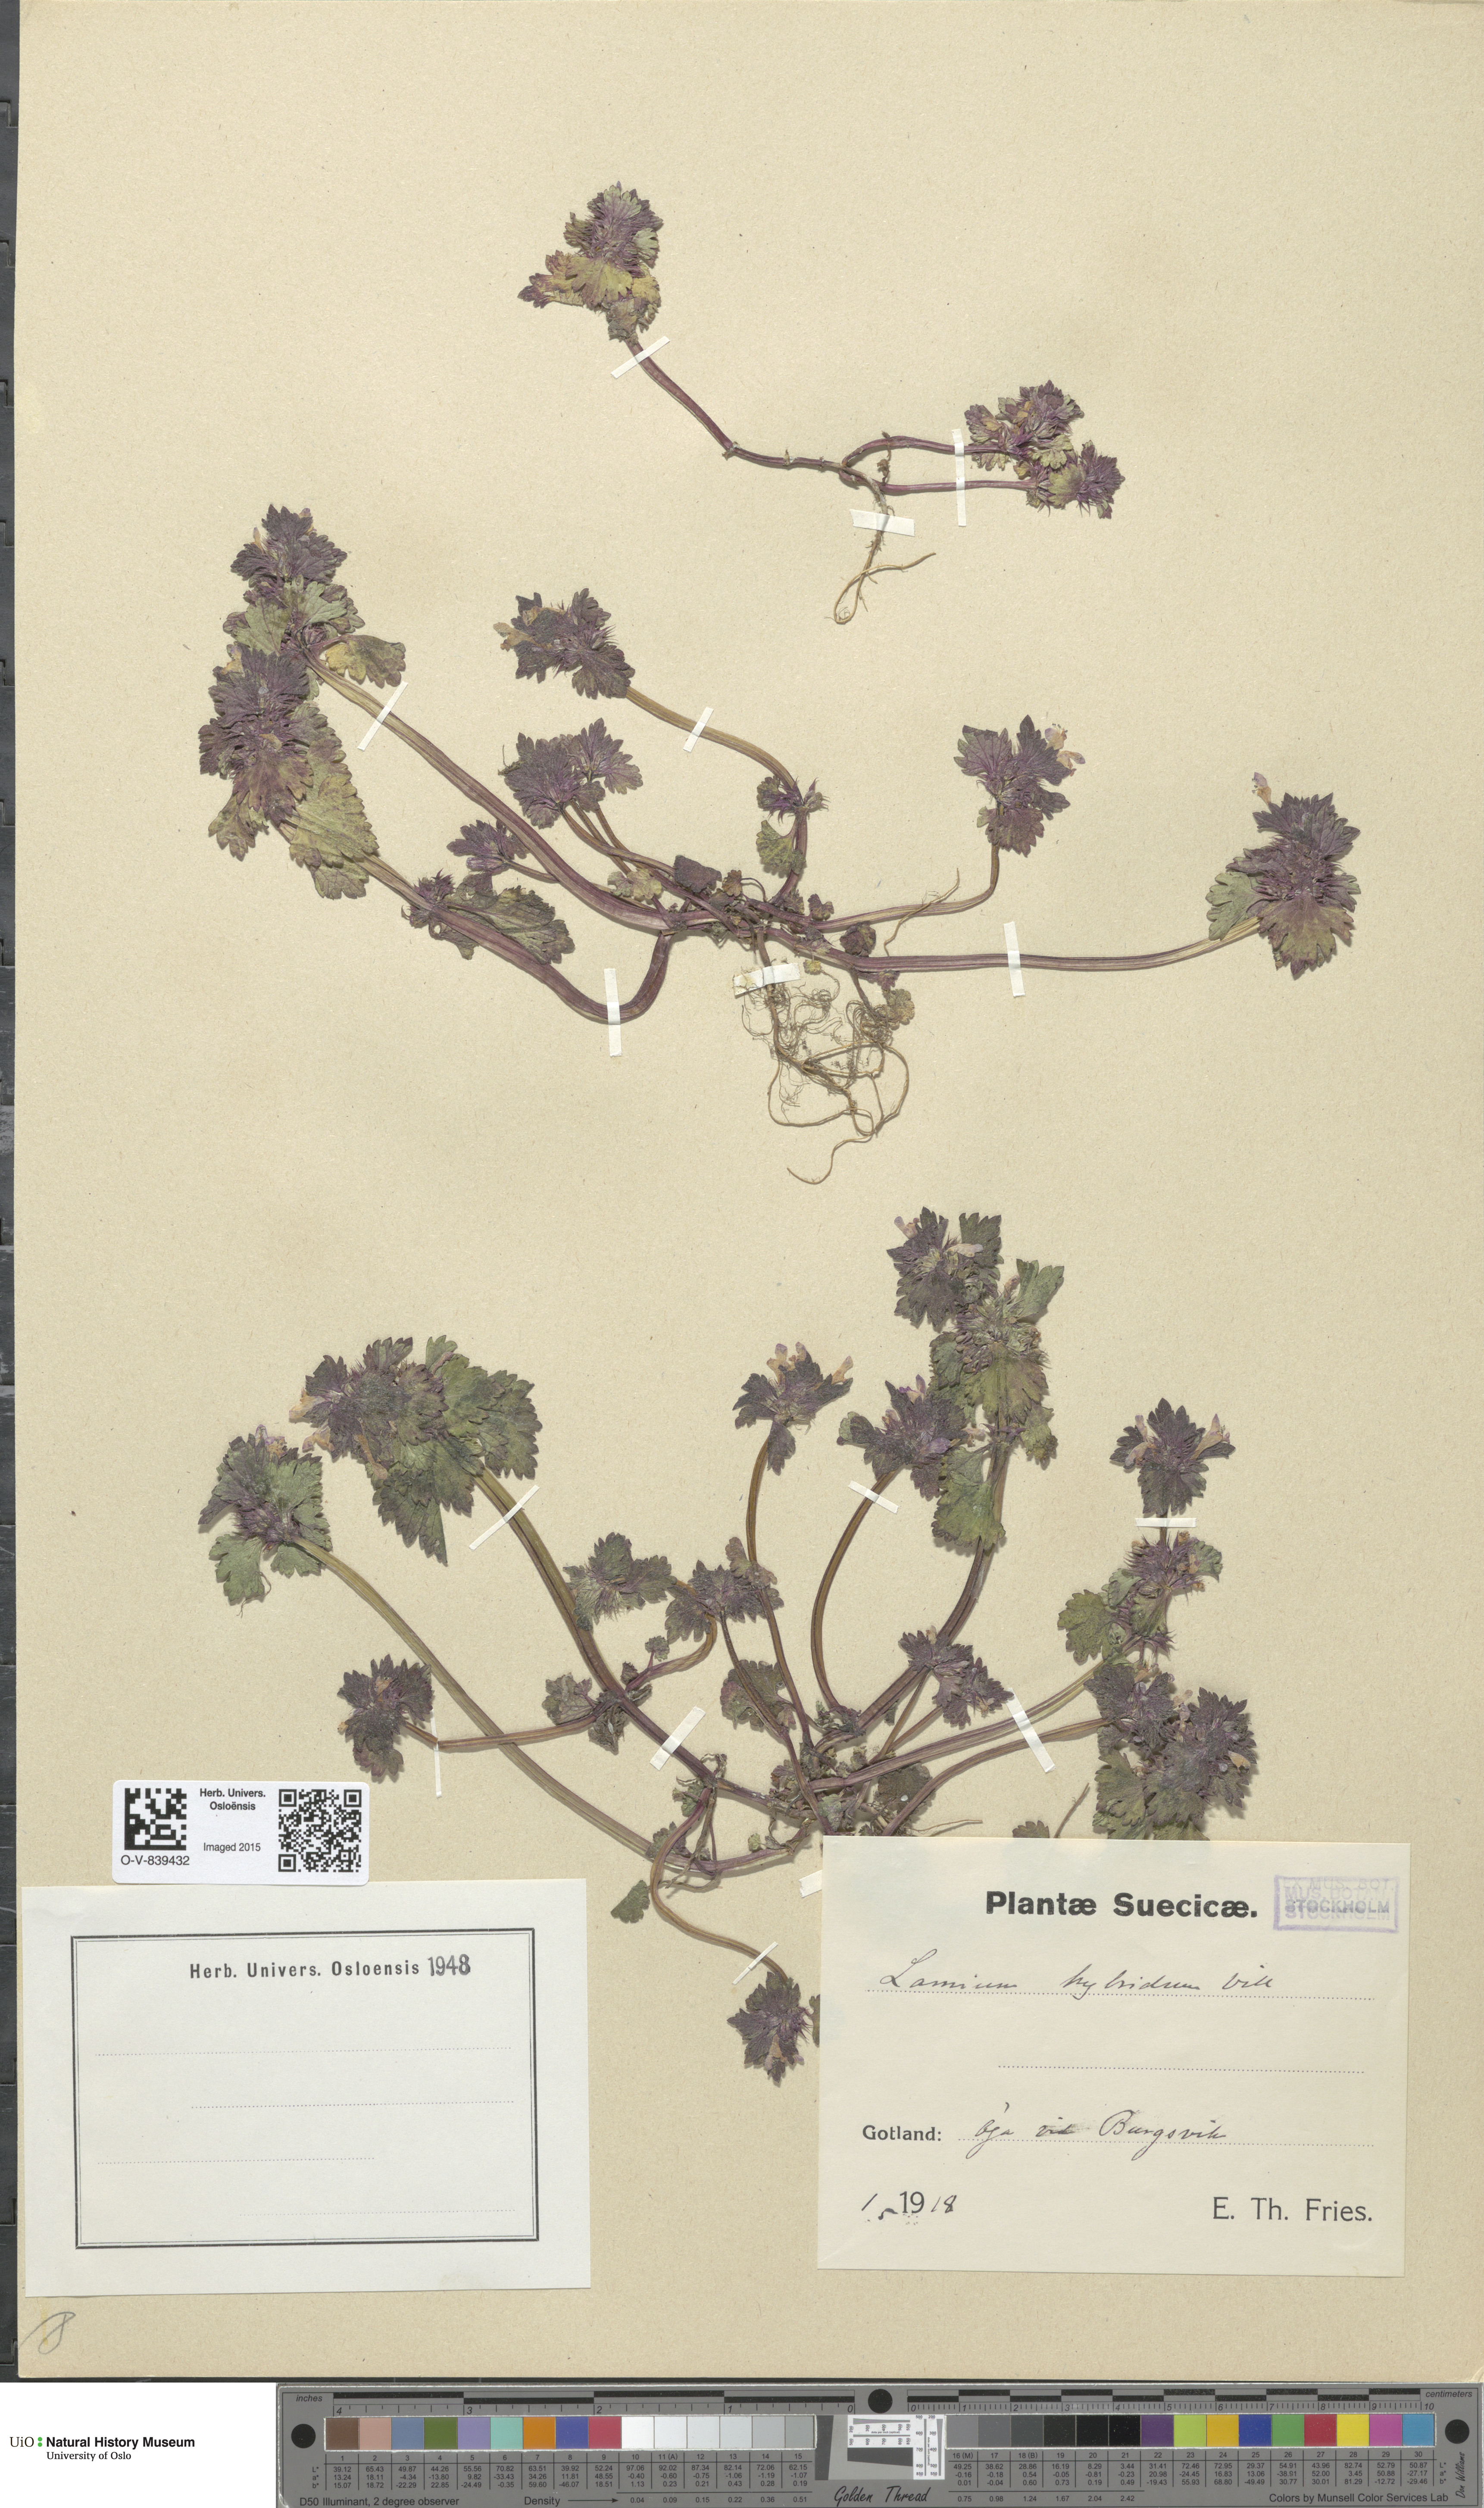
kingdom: Plantae
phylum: Tracheophyta
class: Magnoliopsida
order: Lamiales
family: Lamiaceae
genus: Lamium
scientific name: Lamium hybridum
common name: Cut-leaved dead-nettle
